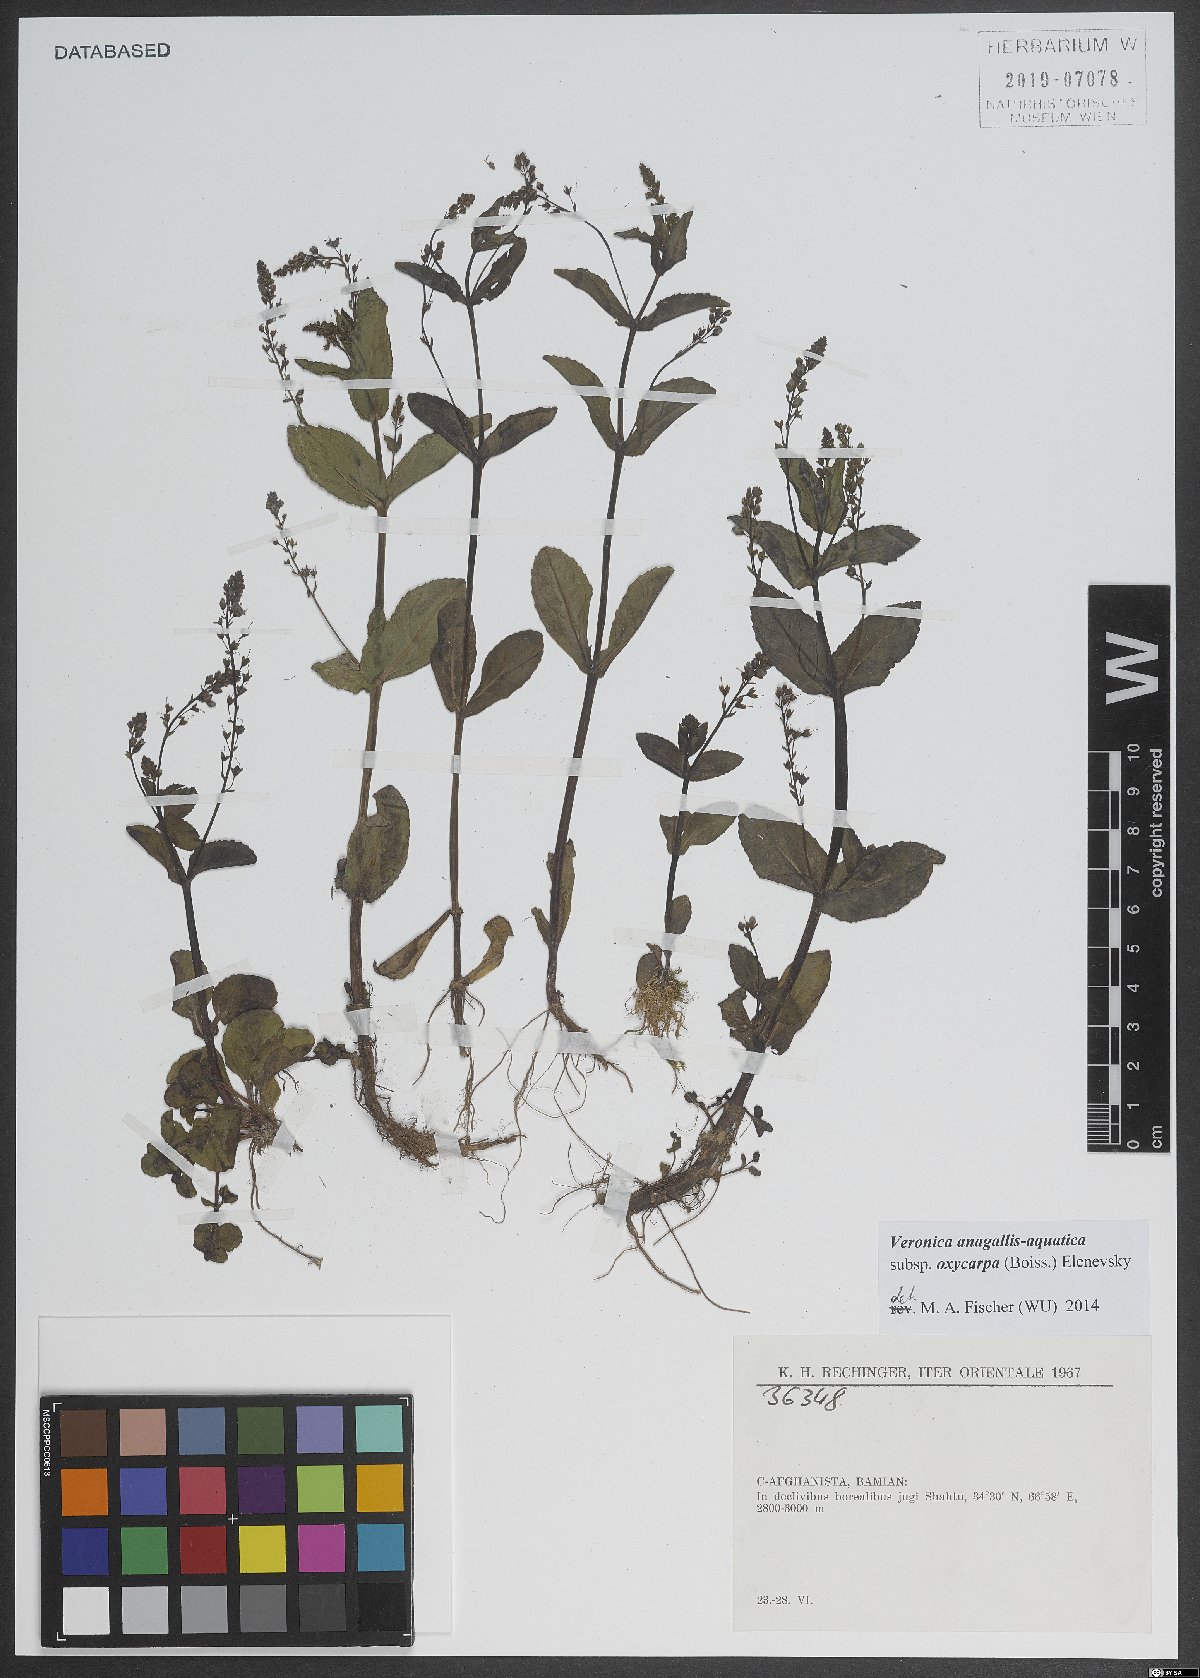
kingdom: Plantae
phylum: Tracheophyta
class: Magnoliopsida
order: Lamiales
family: Plantaginaceae
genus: Veronica
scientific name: Veronica oxycarpa
